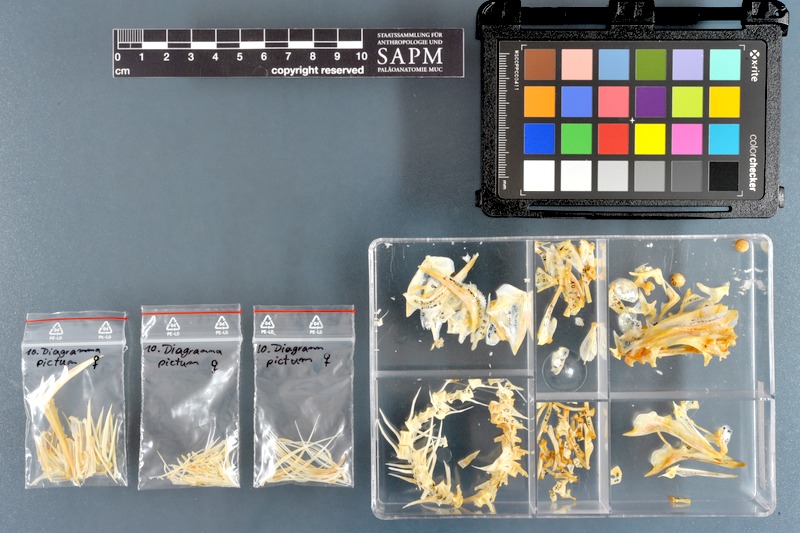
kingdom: Animalia
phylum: Chordata
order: Perciformes
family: Haemulidae
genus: Diagramma
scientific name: Diagramma pictum
